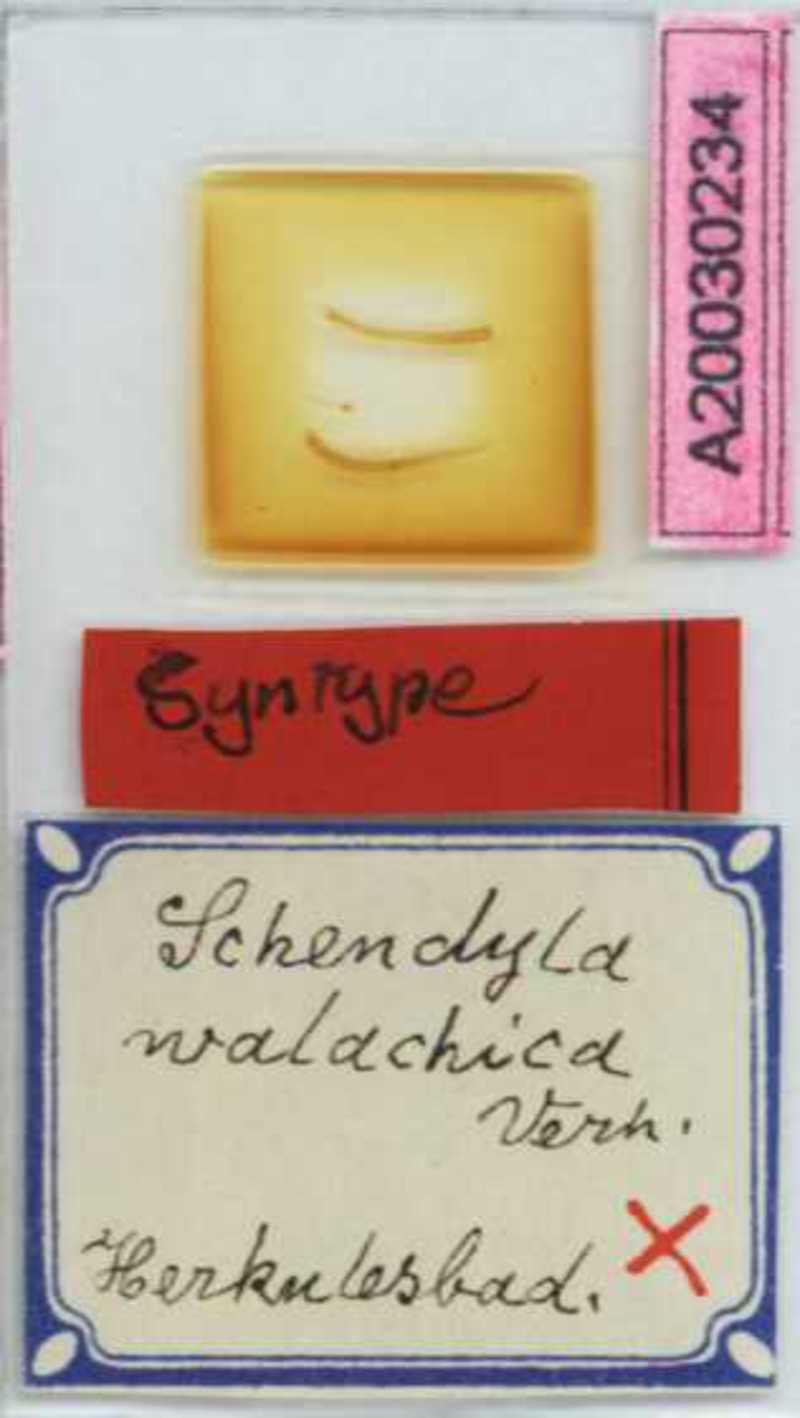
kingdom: Animalia
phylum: Arthropoda
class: Chilopoda
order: Geophilomorpha
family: Schendylidae
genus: Schendyla
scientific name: Schendyla walachica
